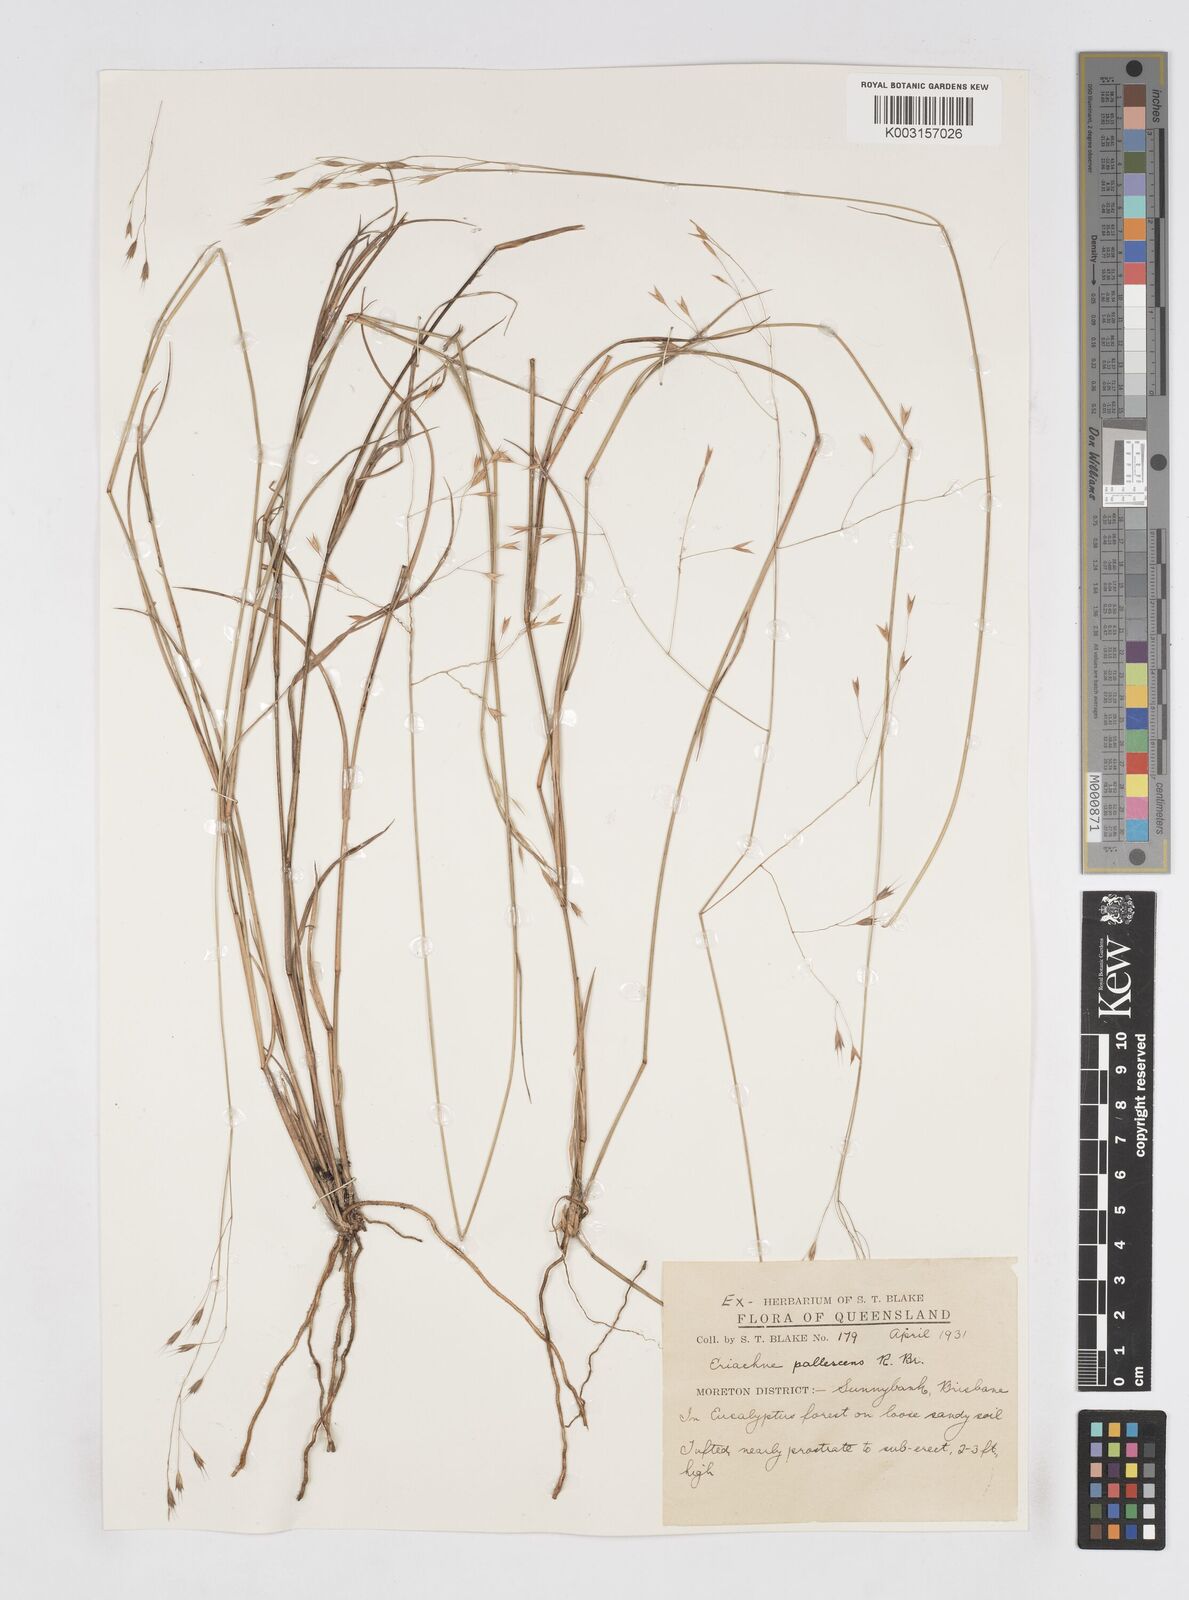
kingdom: Plantae
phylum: Tracheophyta
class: Liliopsida
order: Poales
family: Poaceae
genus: Eriachne
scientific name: Eriachne pallescens
